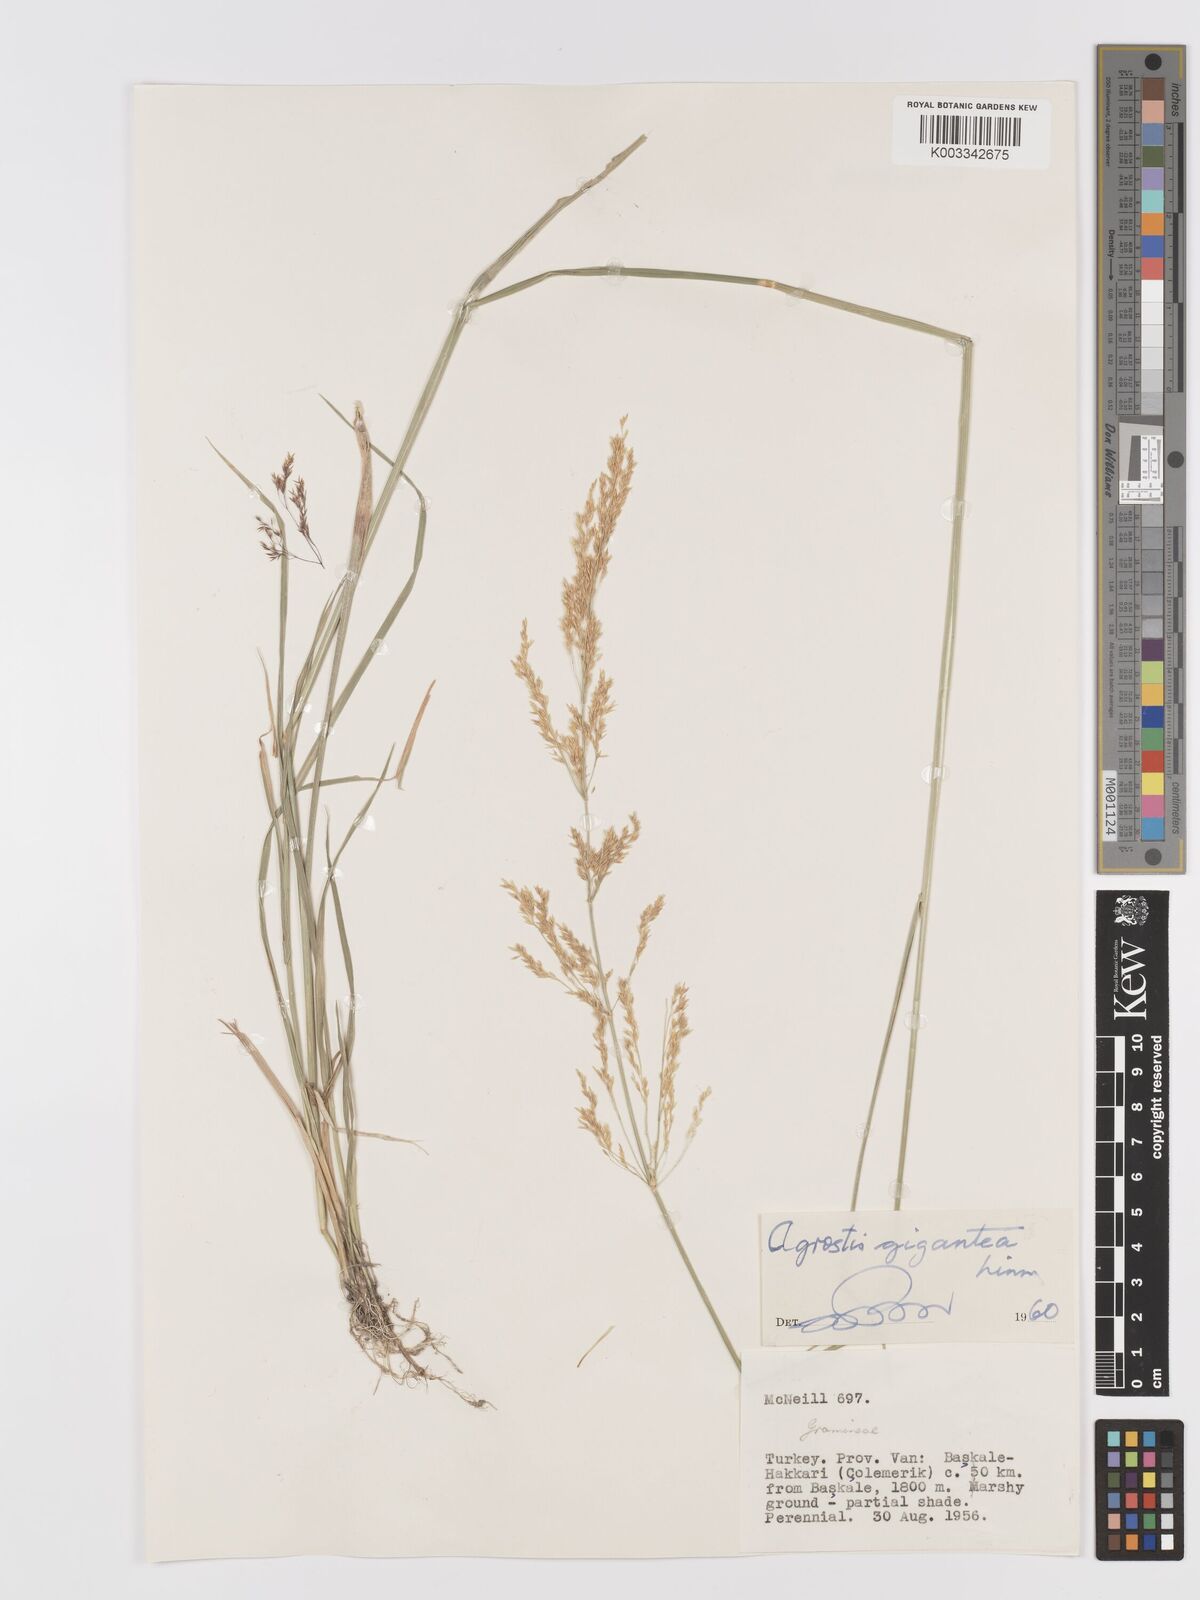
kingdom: Plantae
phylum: Tracheophyta
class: Liliopsida
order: Poales
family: Poaceae
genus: Agrostis
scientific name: Agrostis gigantea
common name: Black bent
